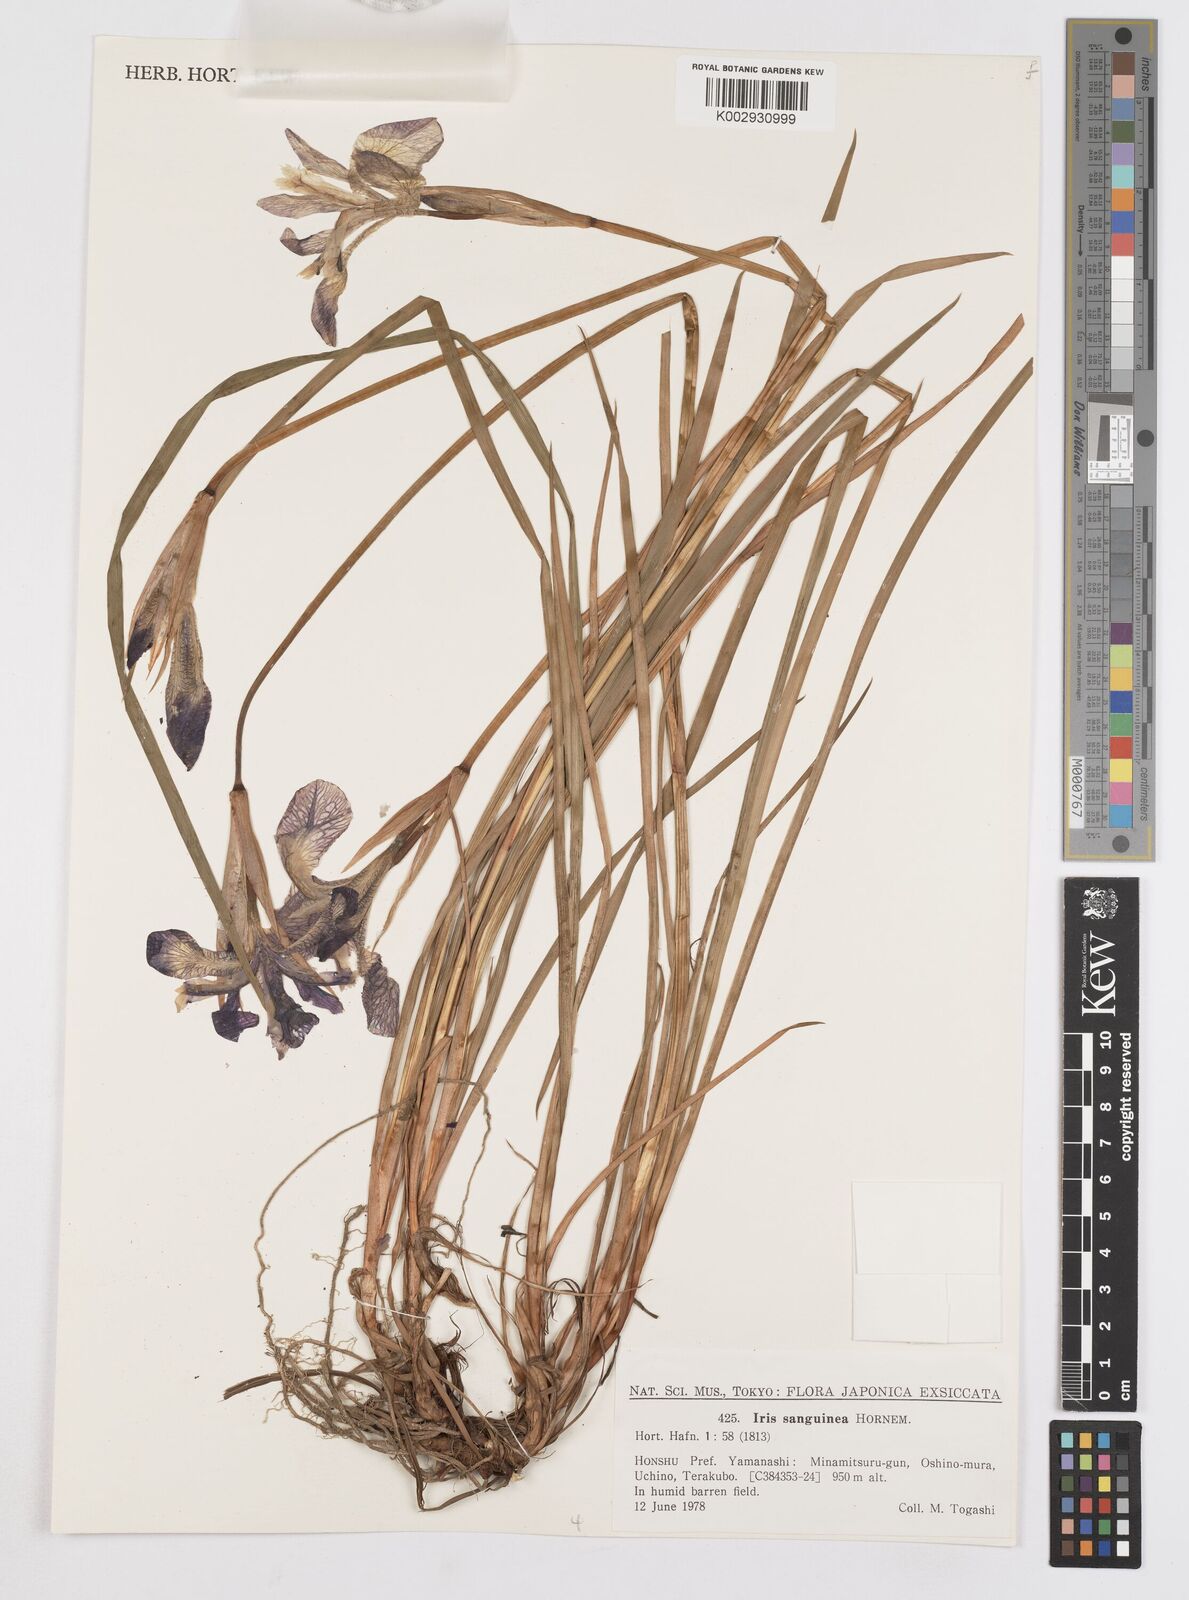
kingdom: Plantae
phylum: Tracheophyta
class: Liliopsida
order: Asparagales
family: Iridaceae
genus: Iris
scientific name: Iris sanguinea
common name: Blood iris
